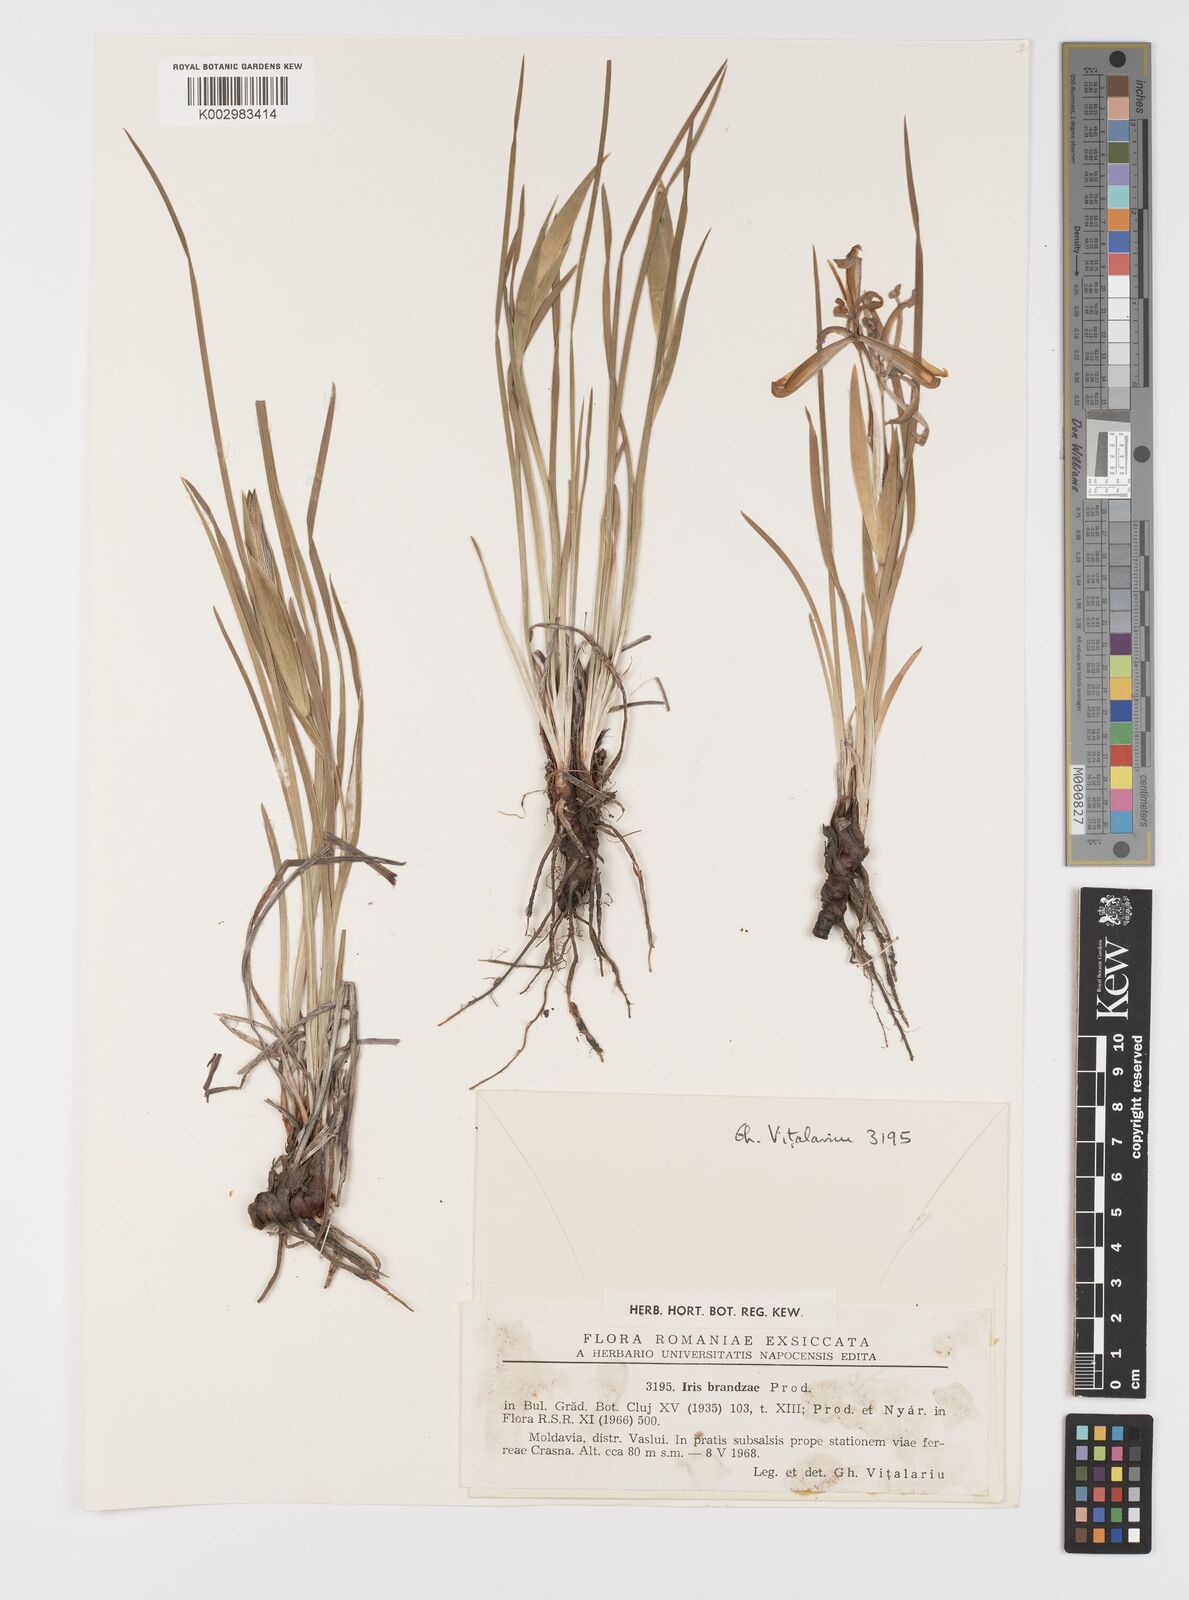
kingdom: Plantae
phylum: Tracheophyta
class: Liliopsida
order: Asparagales
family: Iridaceae
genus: Iris
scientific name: Iris sintenisii
